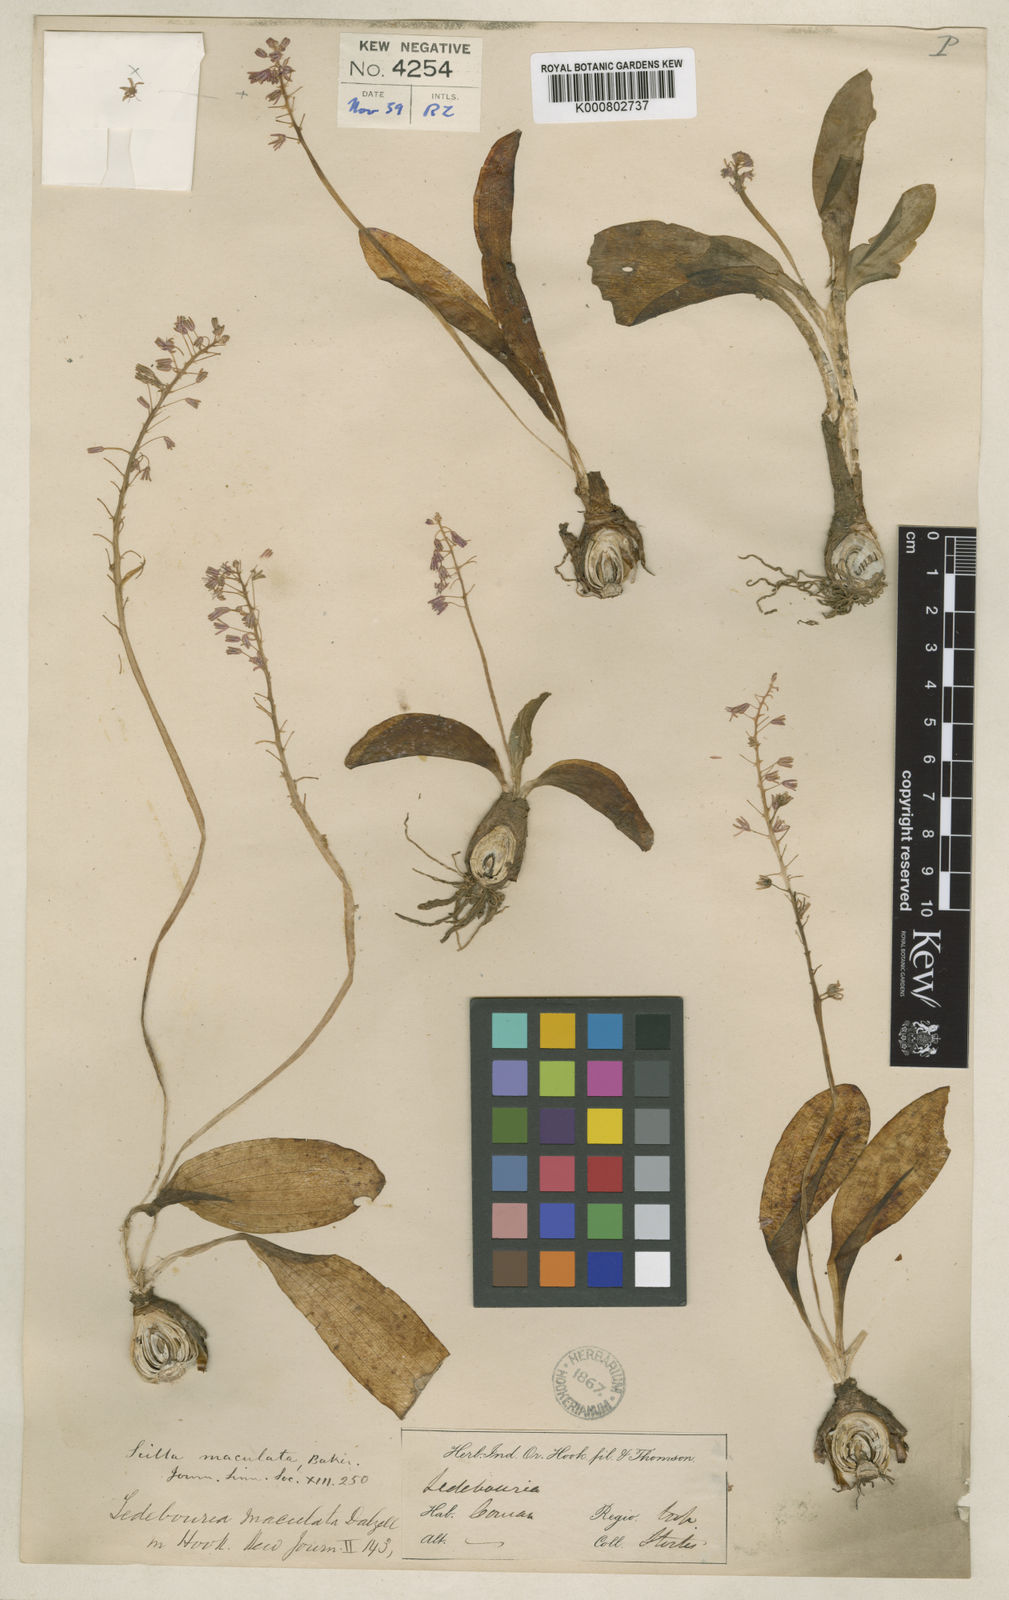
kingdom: Plantae
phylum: Tracheophyta
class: Liliopsida
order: Asparagales
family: Asparagaceae
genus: Ledebouria
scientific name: Ledebouria revoluta
